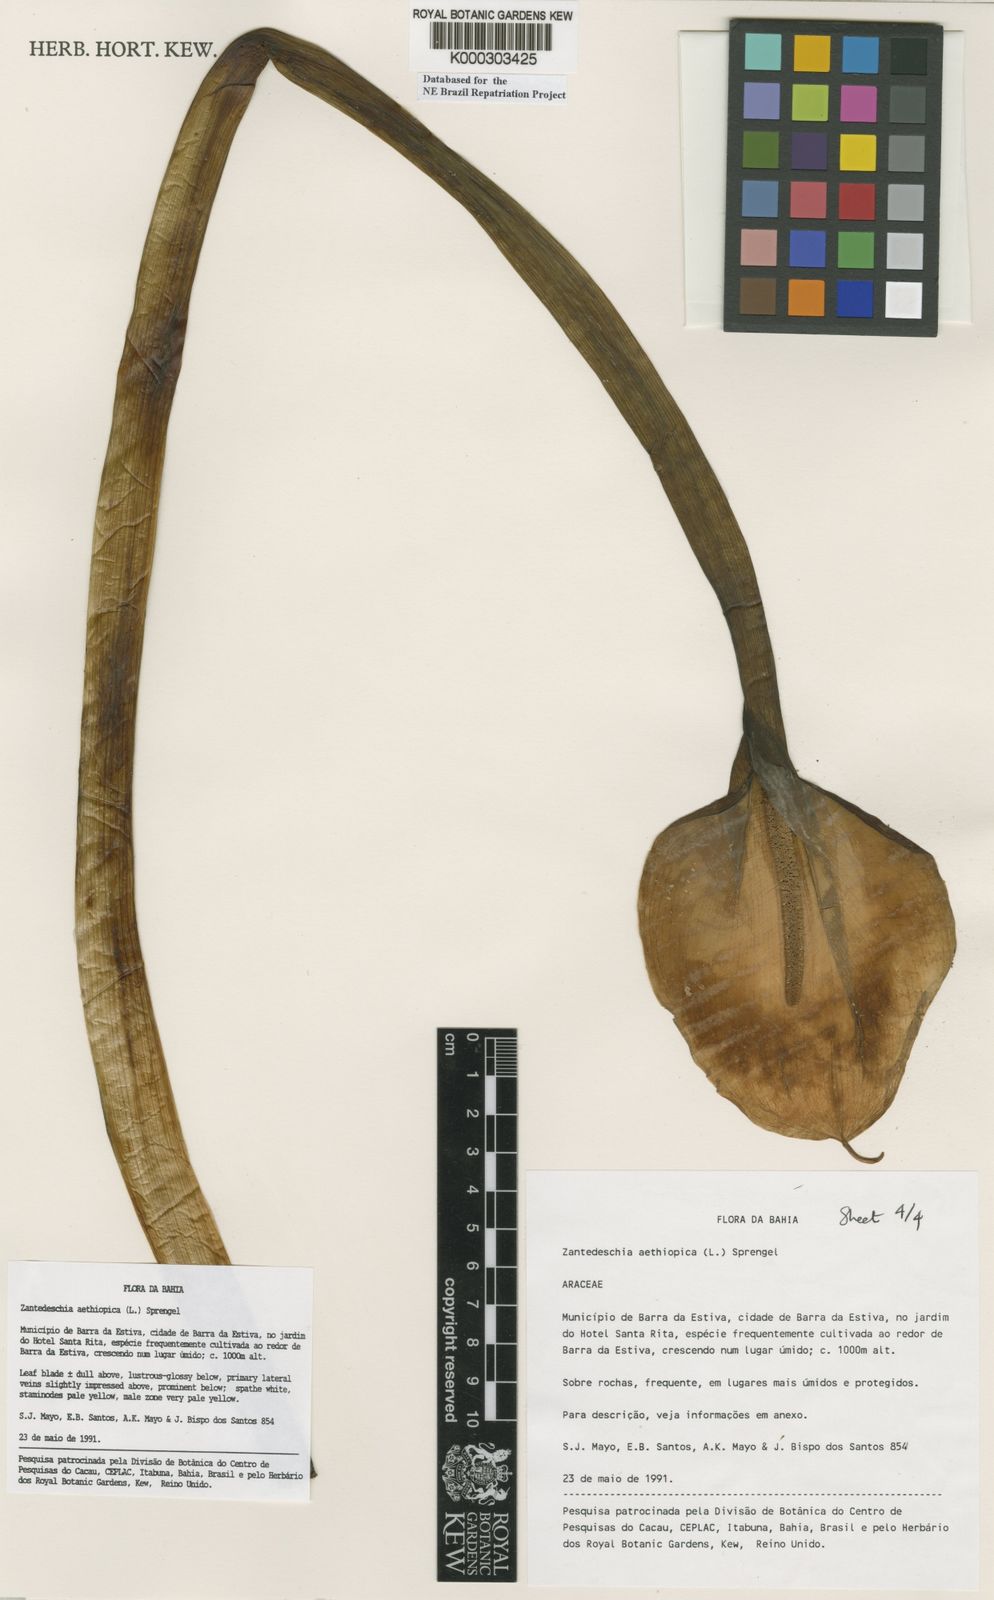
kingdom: Plantae
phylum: Tracheophyta
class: Liliopsida
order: Alismatales
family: Araceae
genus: Zantedeschia
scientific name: Zantedeschia aethiopica
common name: Altar-lily
